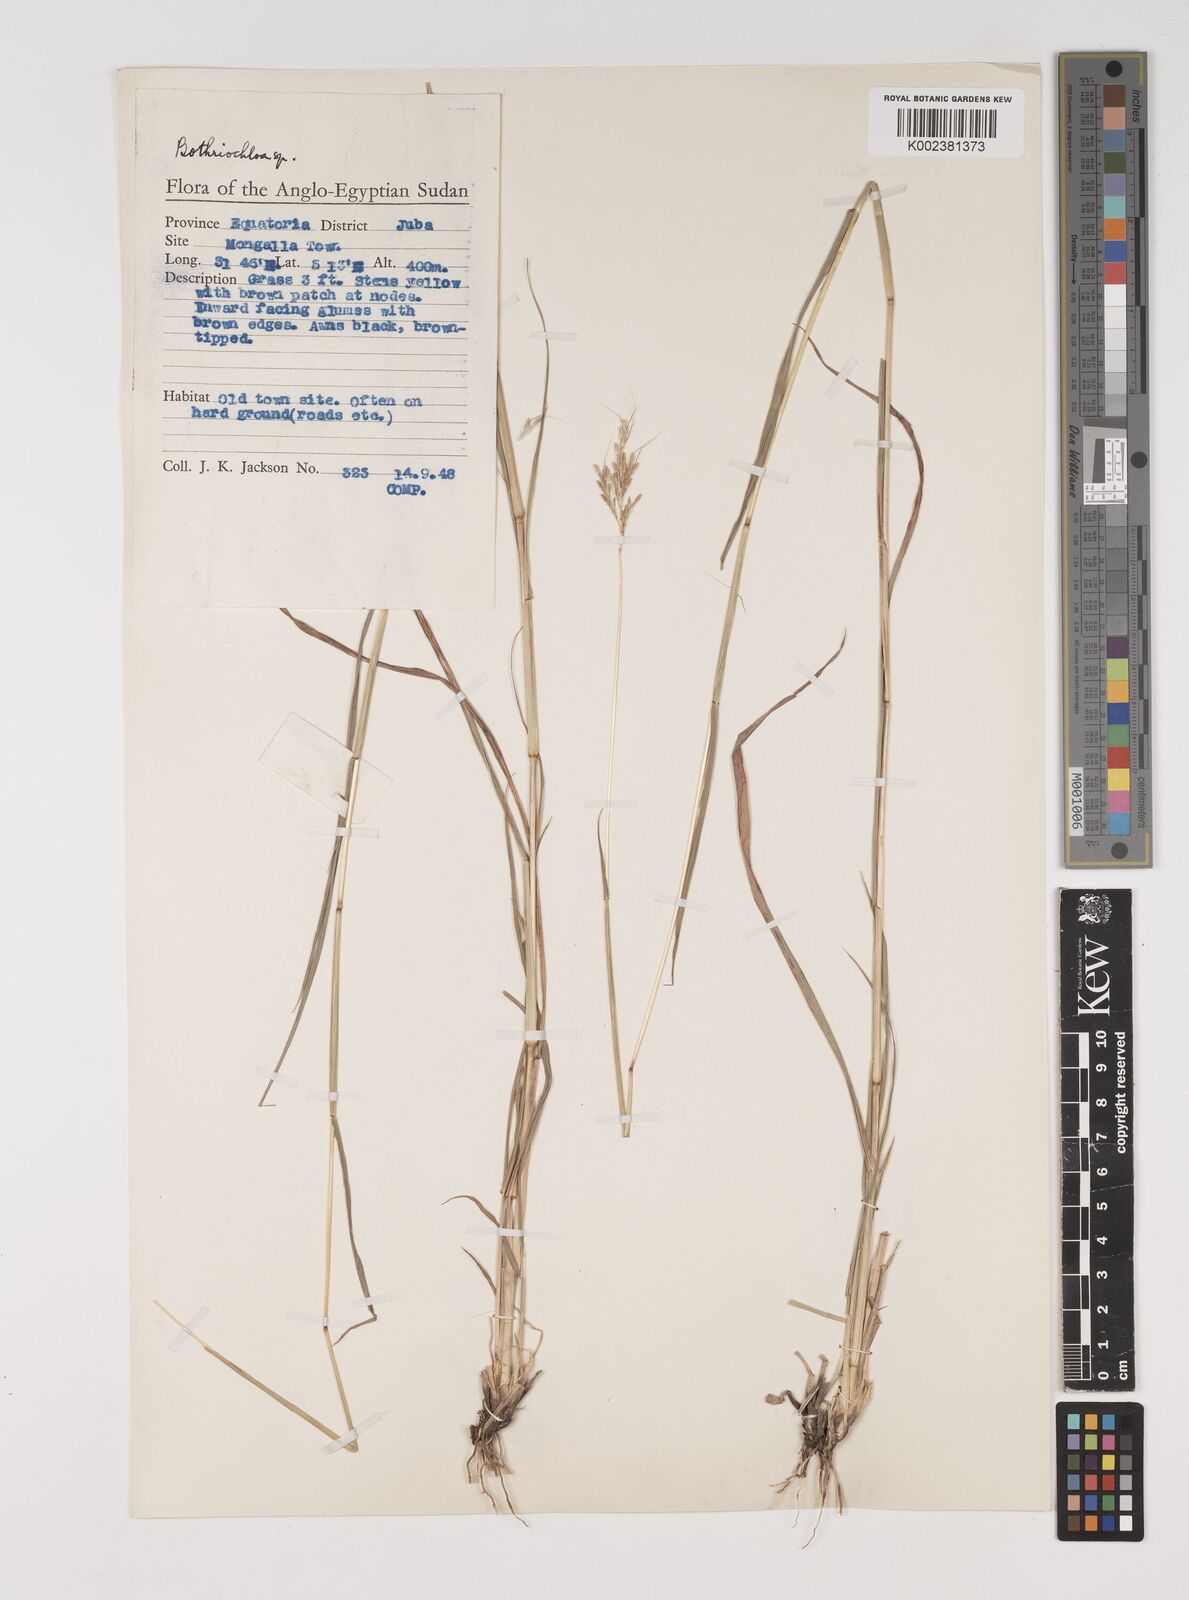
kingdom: Plantae
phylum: Tracheophyta
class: Liliopsida
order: Poales
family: Poaceae
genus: Bothriochloa
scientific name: Bothriochloa insculpta
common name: Creeping-bluegrass
